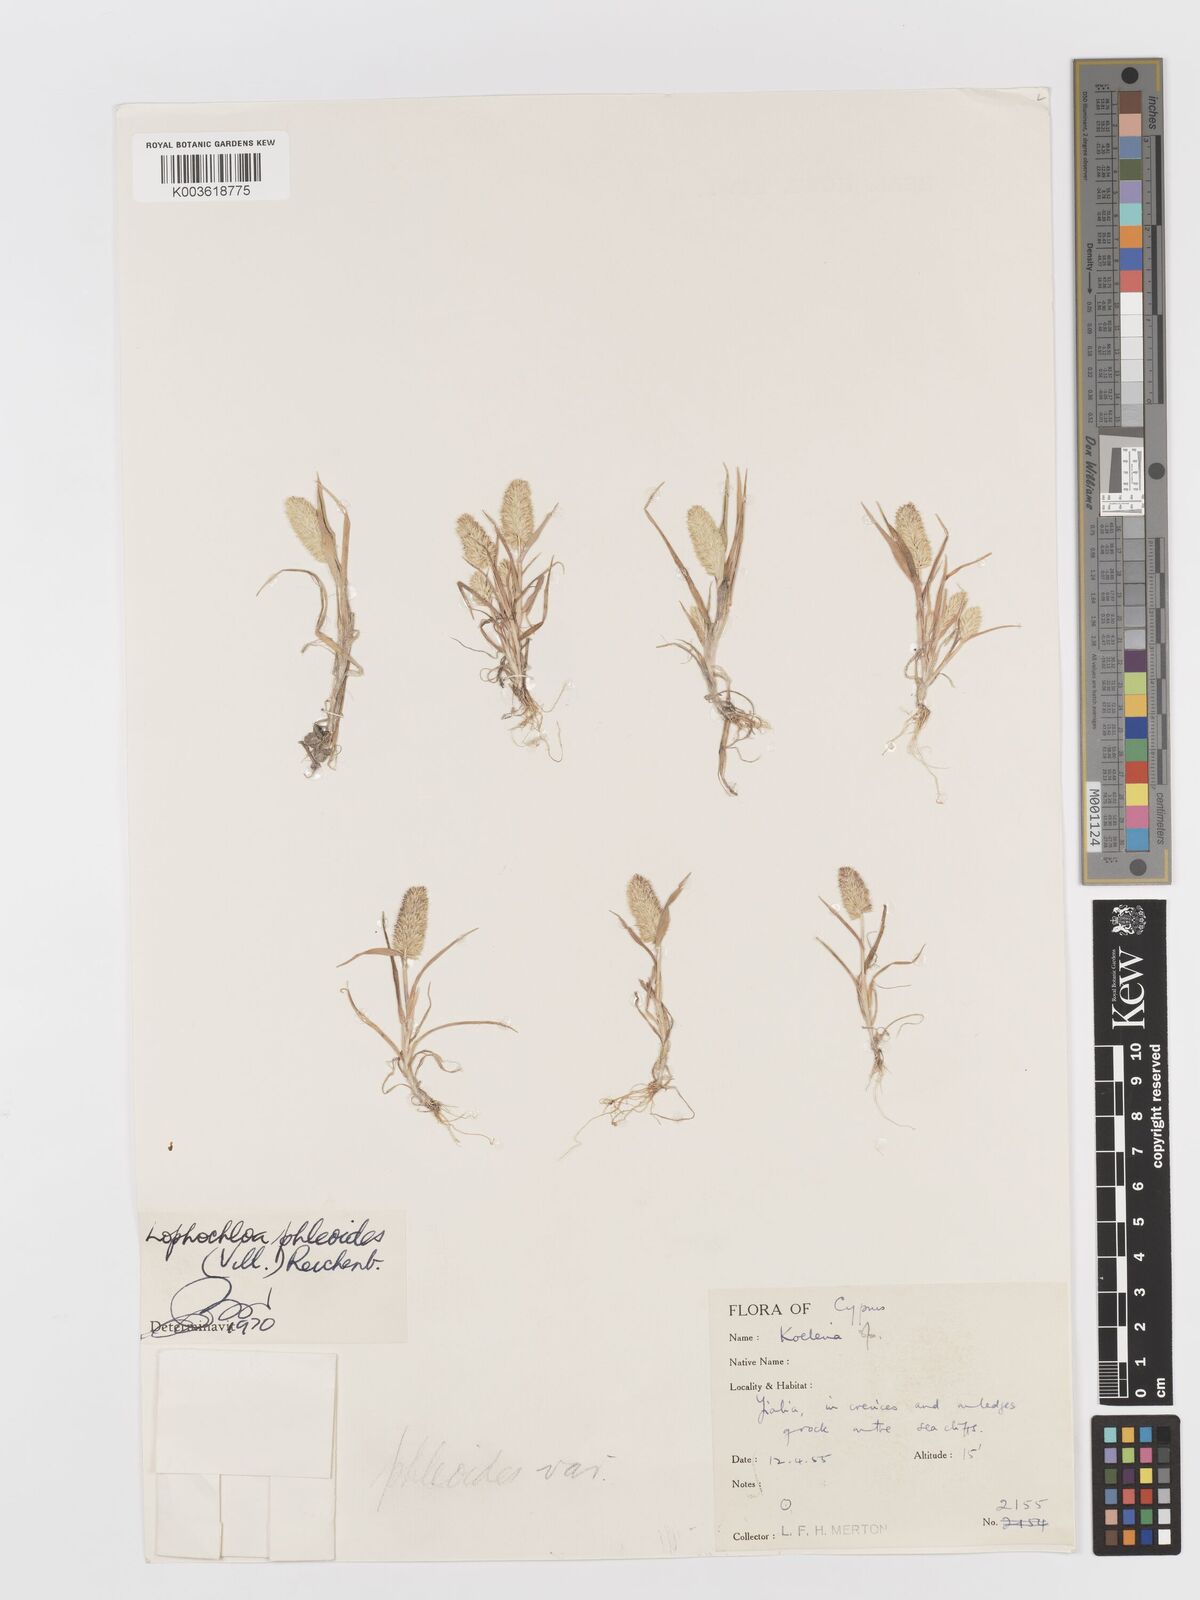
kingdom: Plantae
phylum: Tracheophyta
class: Liliopsida
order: Poales
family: Poaceae
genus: Rostraria
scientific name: Rostraria cristata
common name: Mediterranean hair-grass
